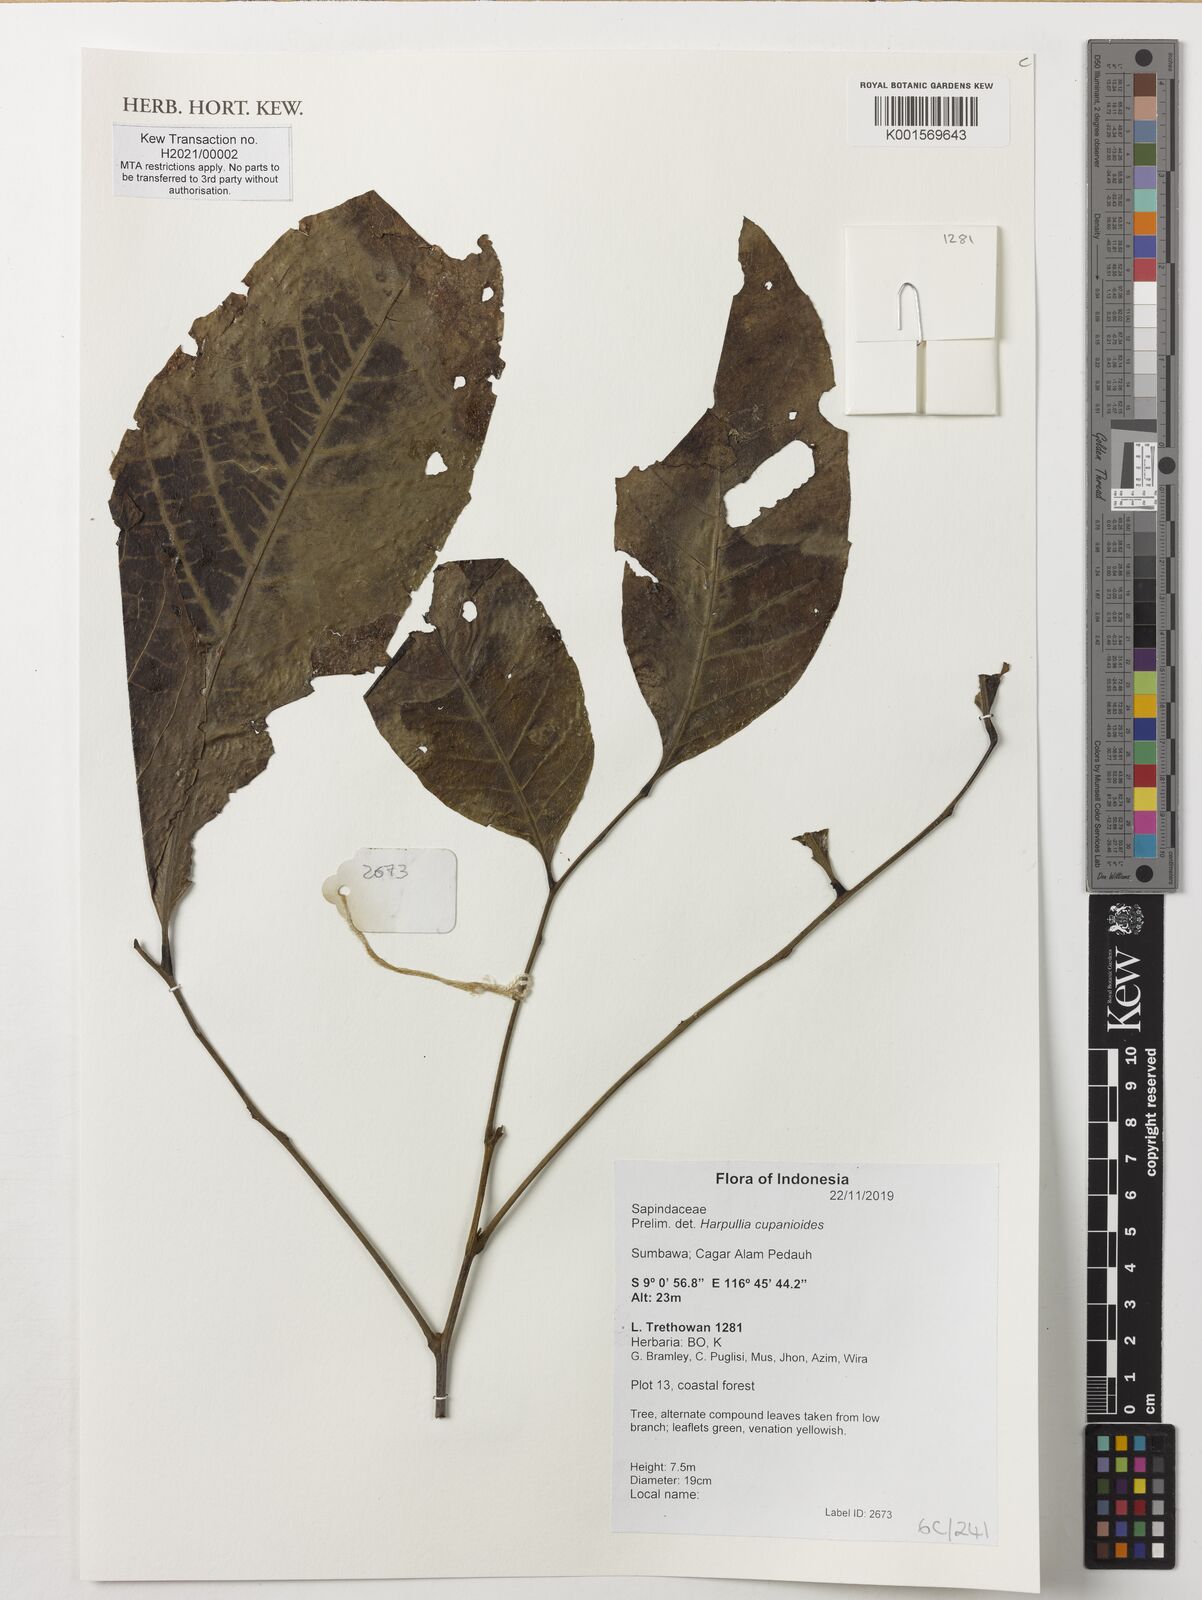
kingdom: Plantae
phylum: Tracheophyta
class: Magnoliopsida
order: Sapindales
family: Sapindaceae
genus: Harpullia
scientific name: Harpullia cupanioides
